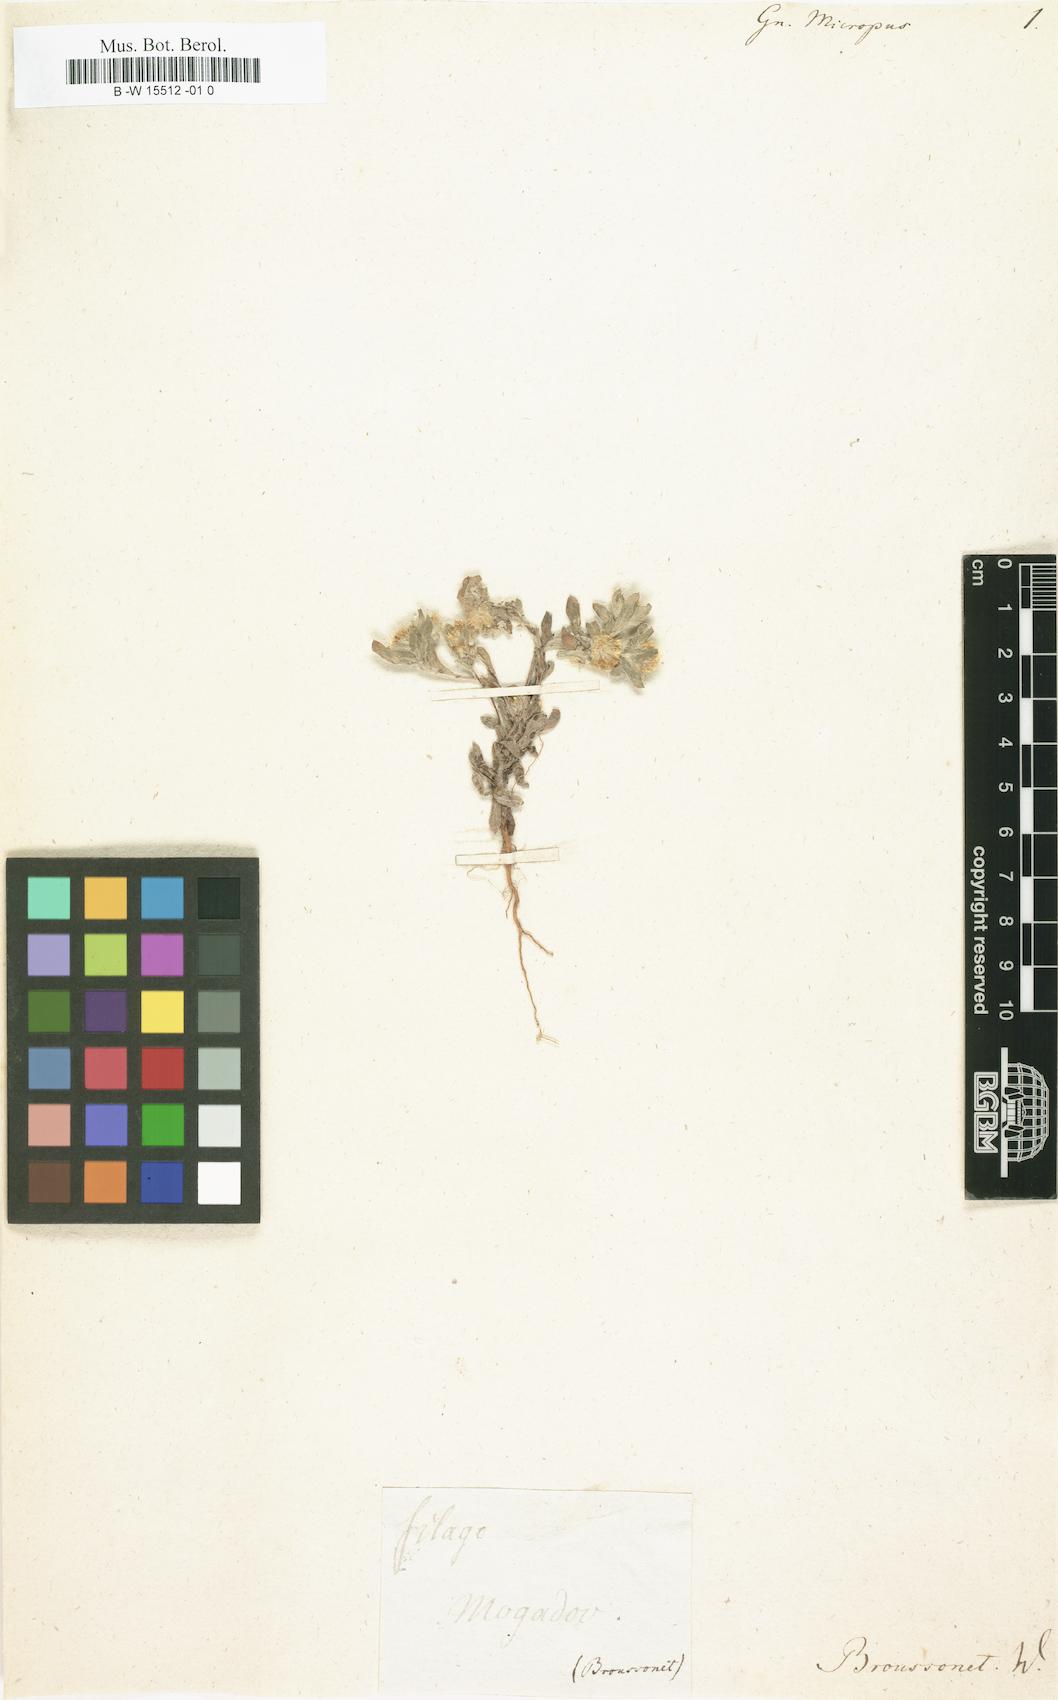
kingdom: Plantae
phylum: Tracheophyta
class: Magnoliopsida
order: Asterales
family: Asteraceae
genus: Gnaphalium
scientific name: Gnaphalium
